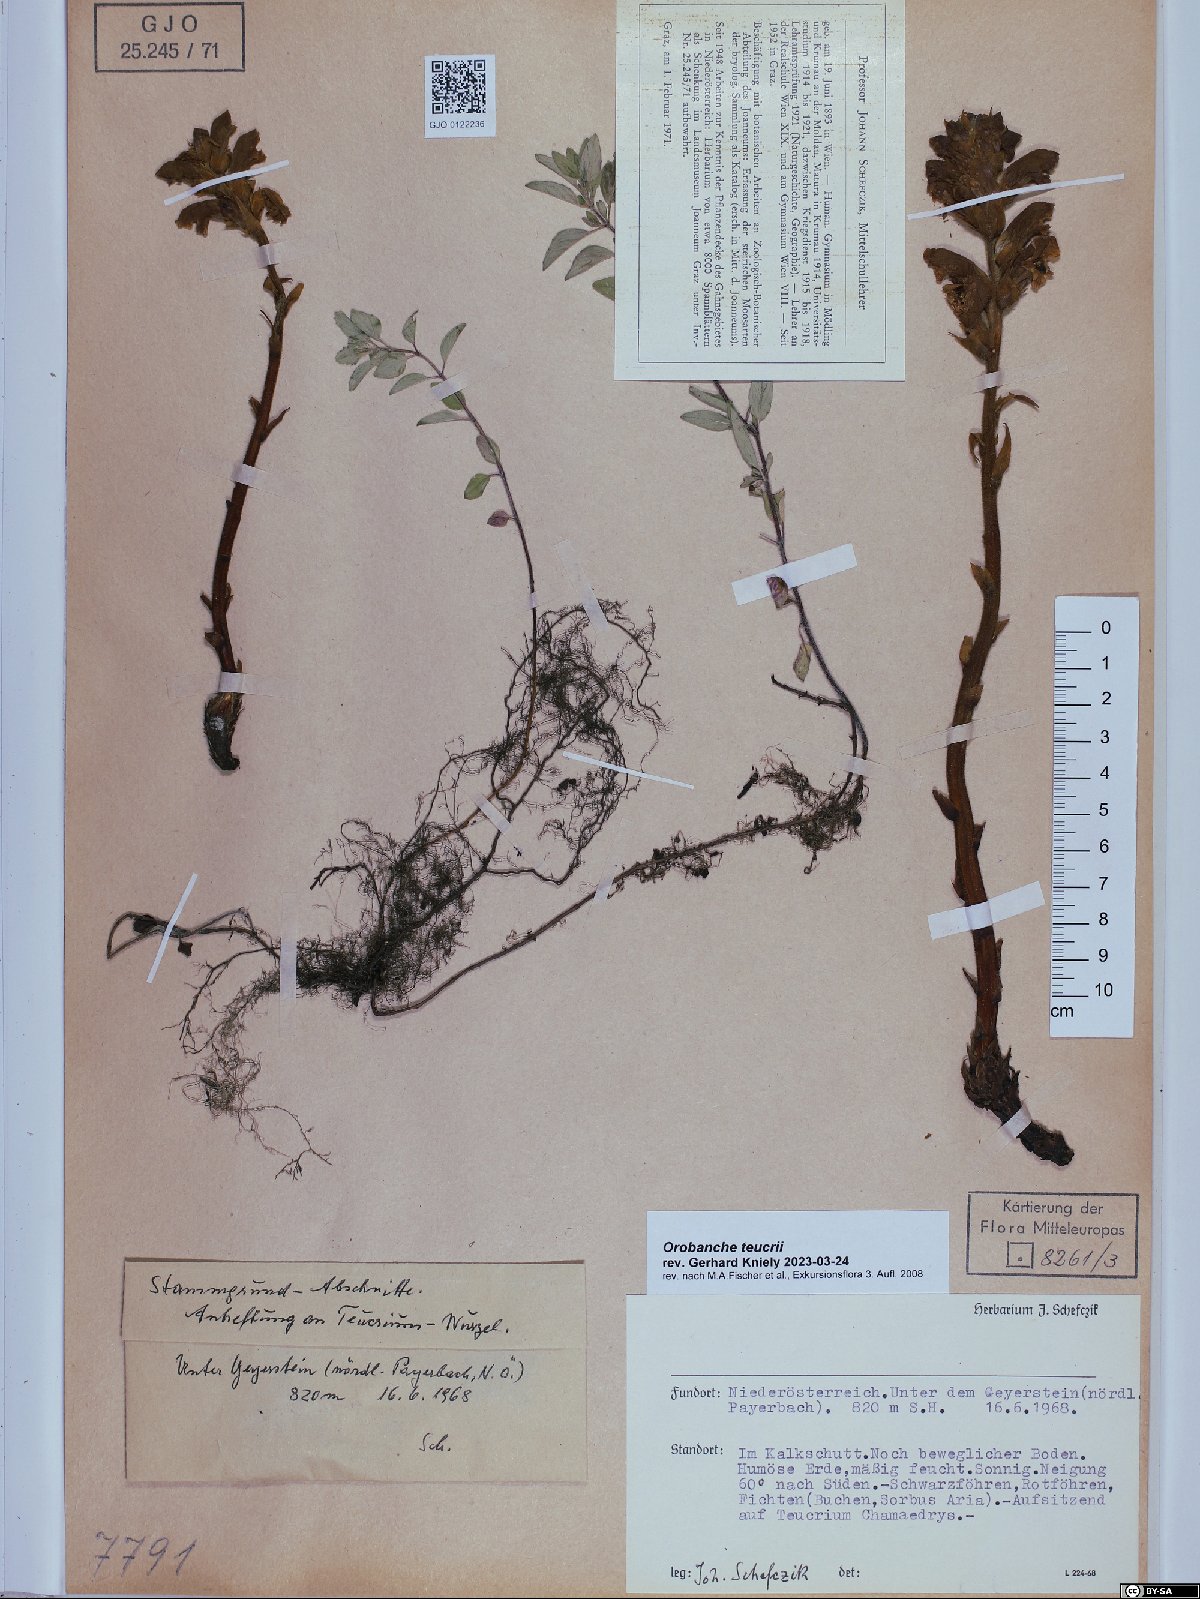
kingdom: Plantae
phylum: Tracheophyta
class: Magnoliopsida
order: Lamiales
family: Orobanchaceae
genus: Orobanche
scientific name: Orobanche teucrii
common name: Germander broomrape
